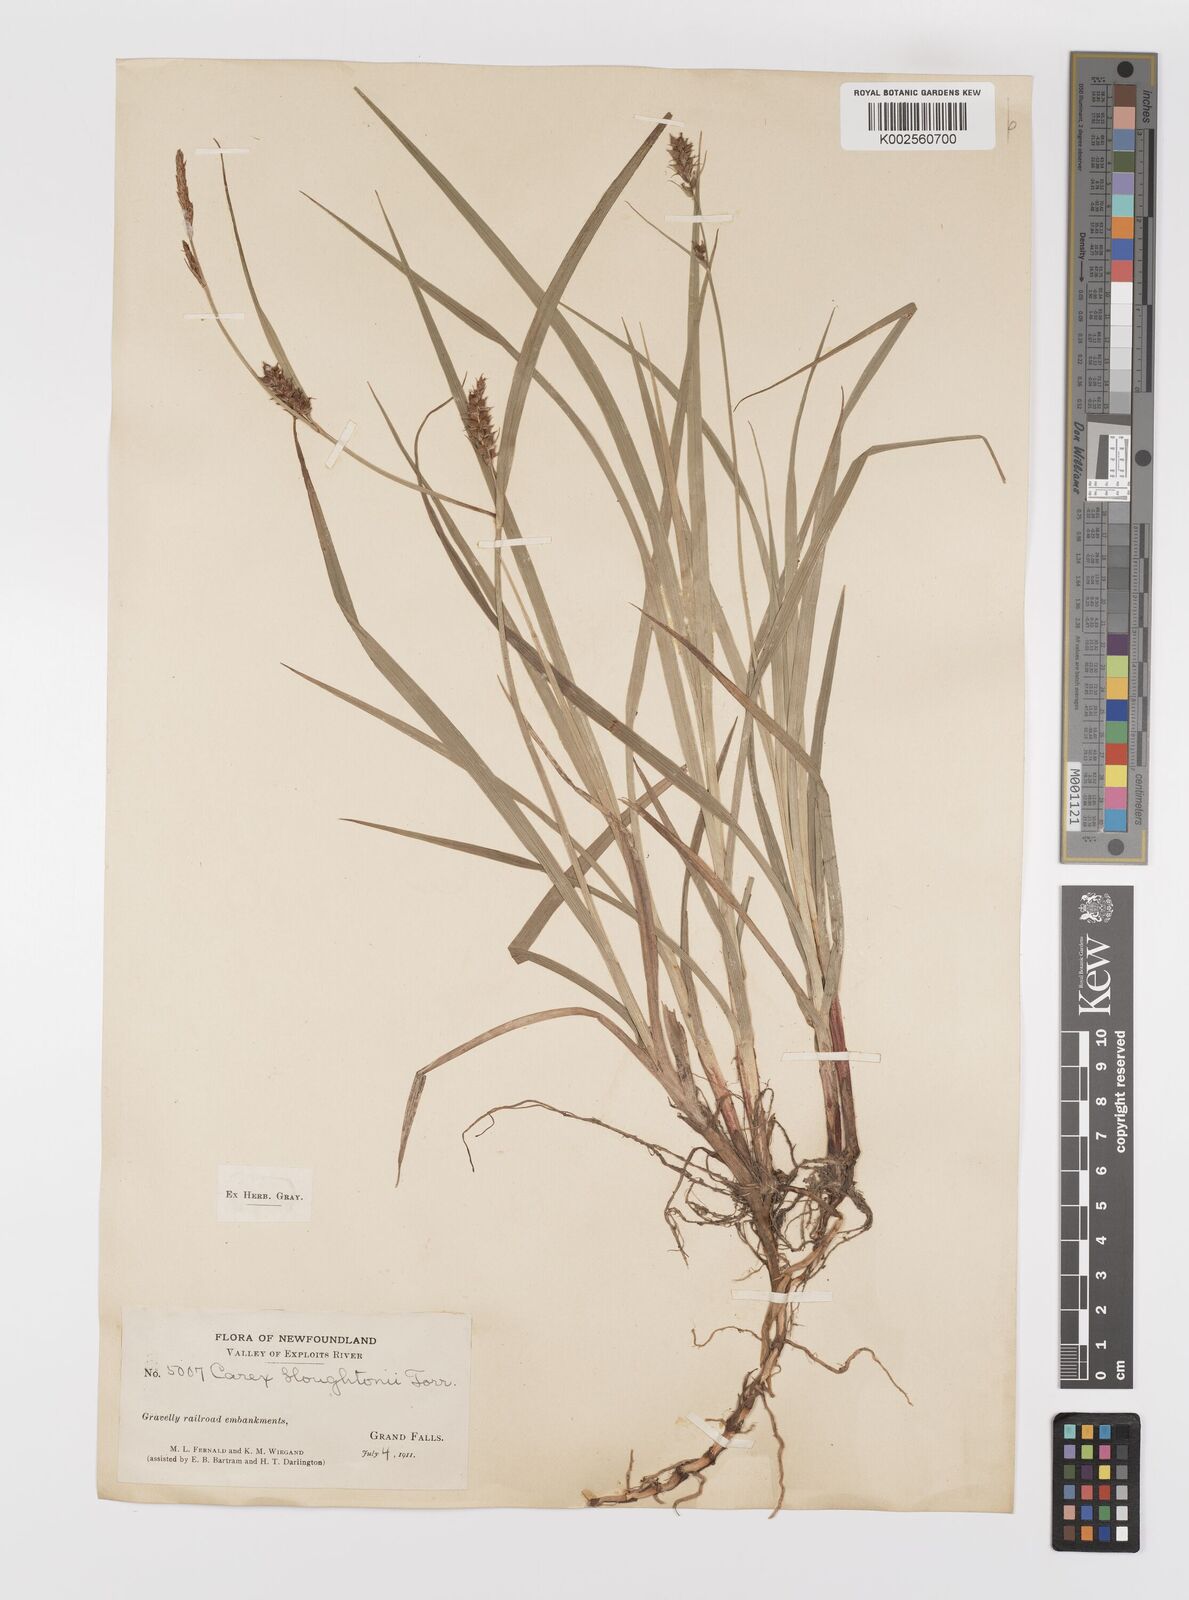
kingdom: Plantae
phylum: Tracheophyta
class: Liliopsida
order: Poales
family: Cyperaceae
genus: Carex
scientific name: Carex houghtoniana
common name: Houghton's sedge
